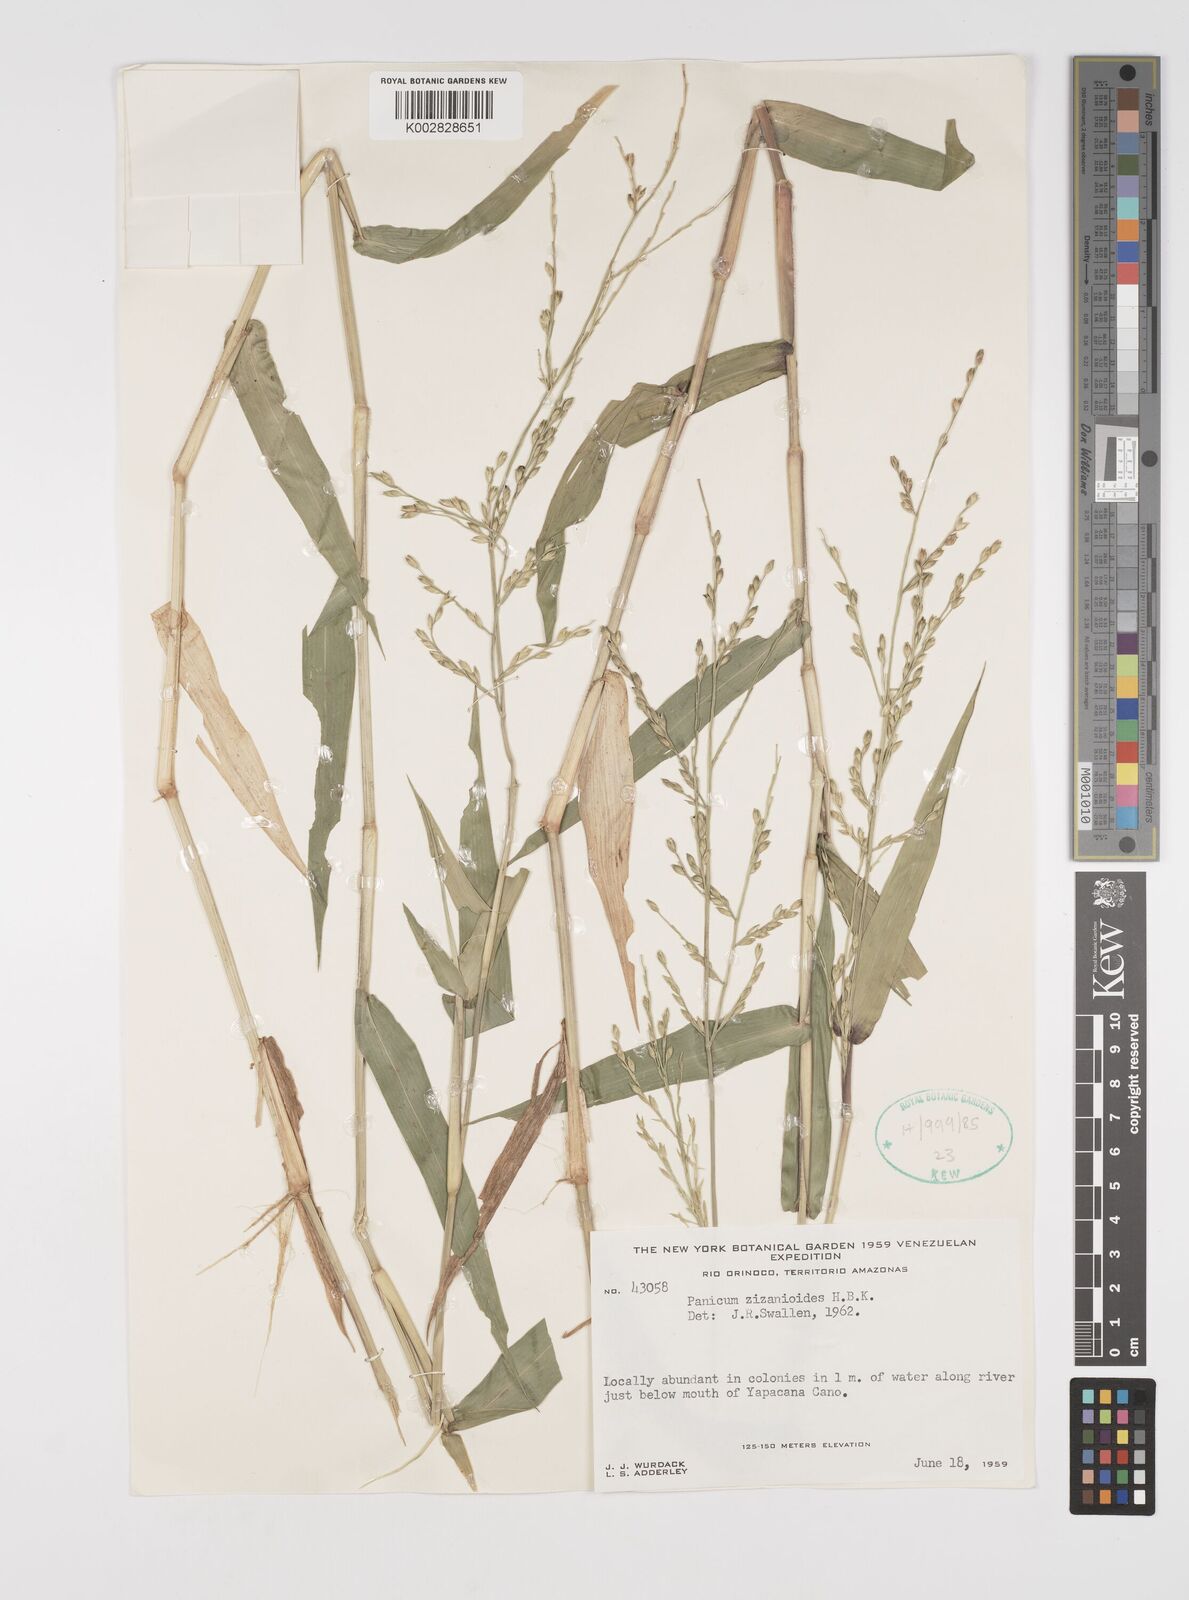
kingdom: Plantae
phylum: Tracheophyta
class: Liliopsida
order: Poales
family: Poaceae
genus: Acroceras
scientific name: Acroceras zizanioides
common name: Oat grass
